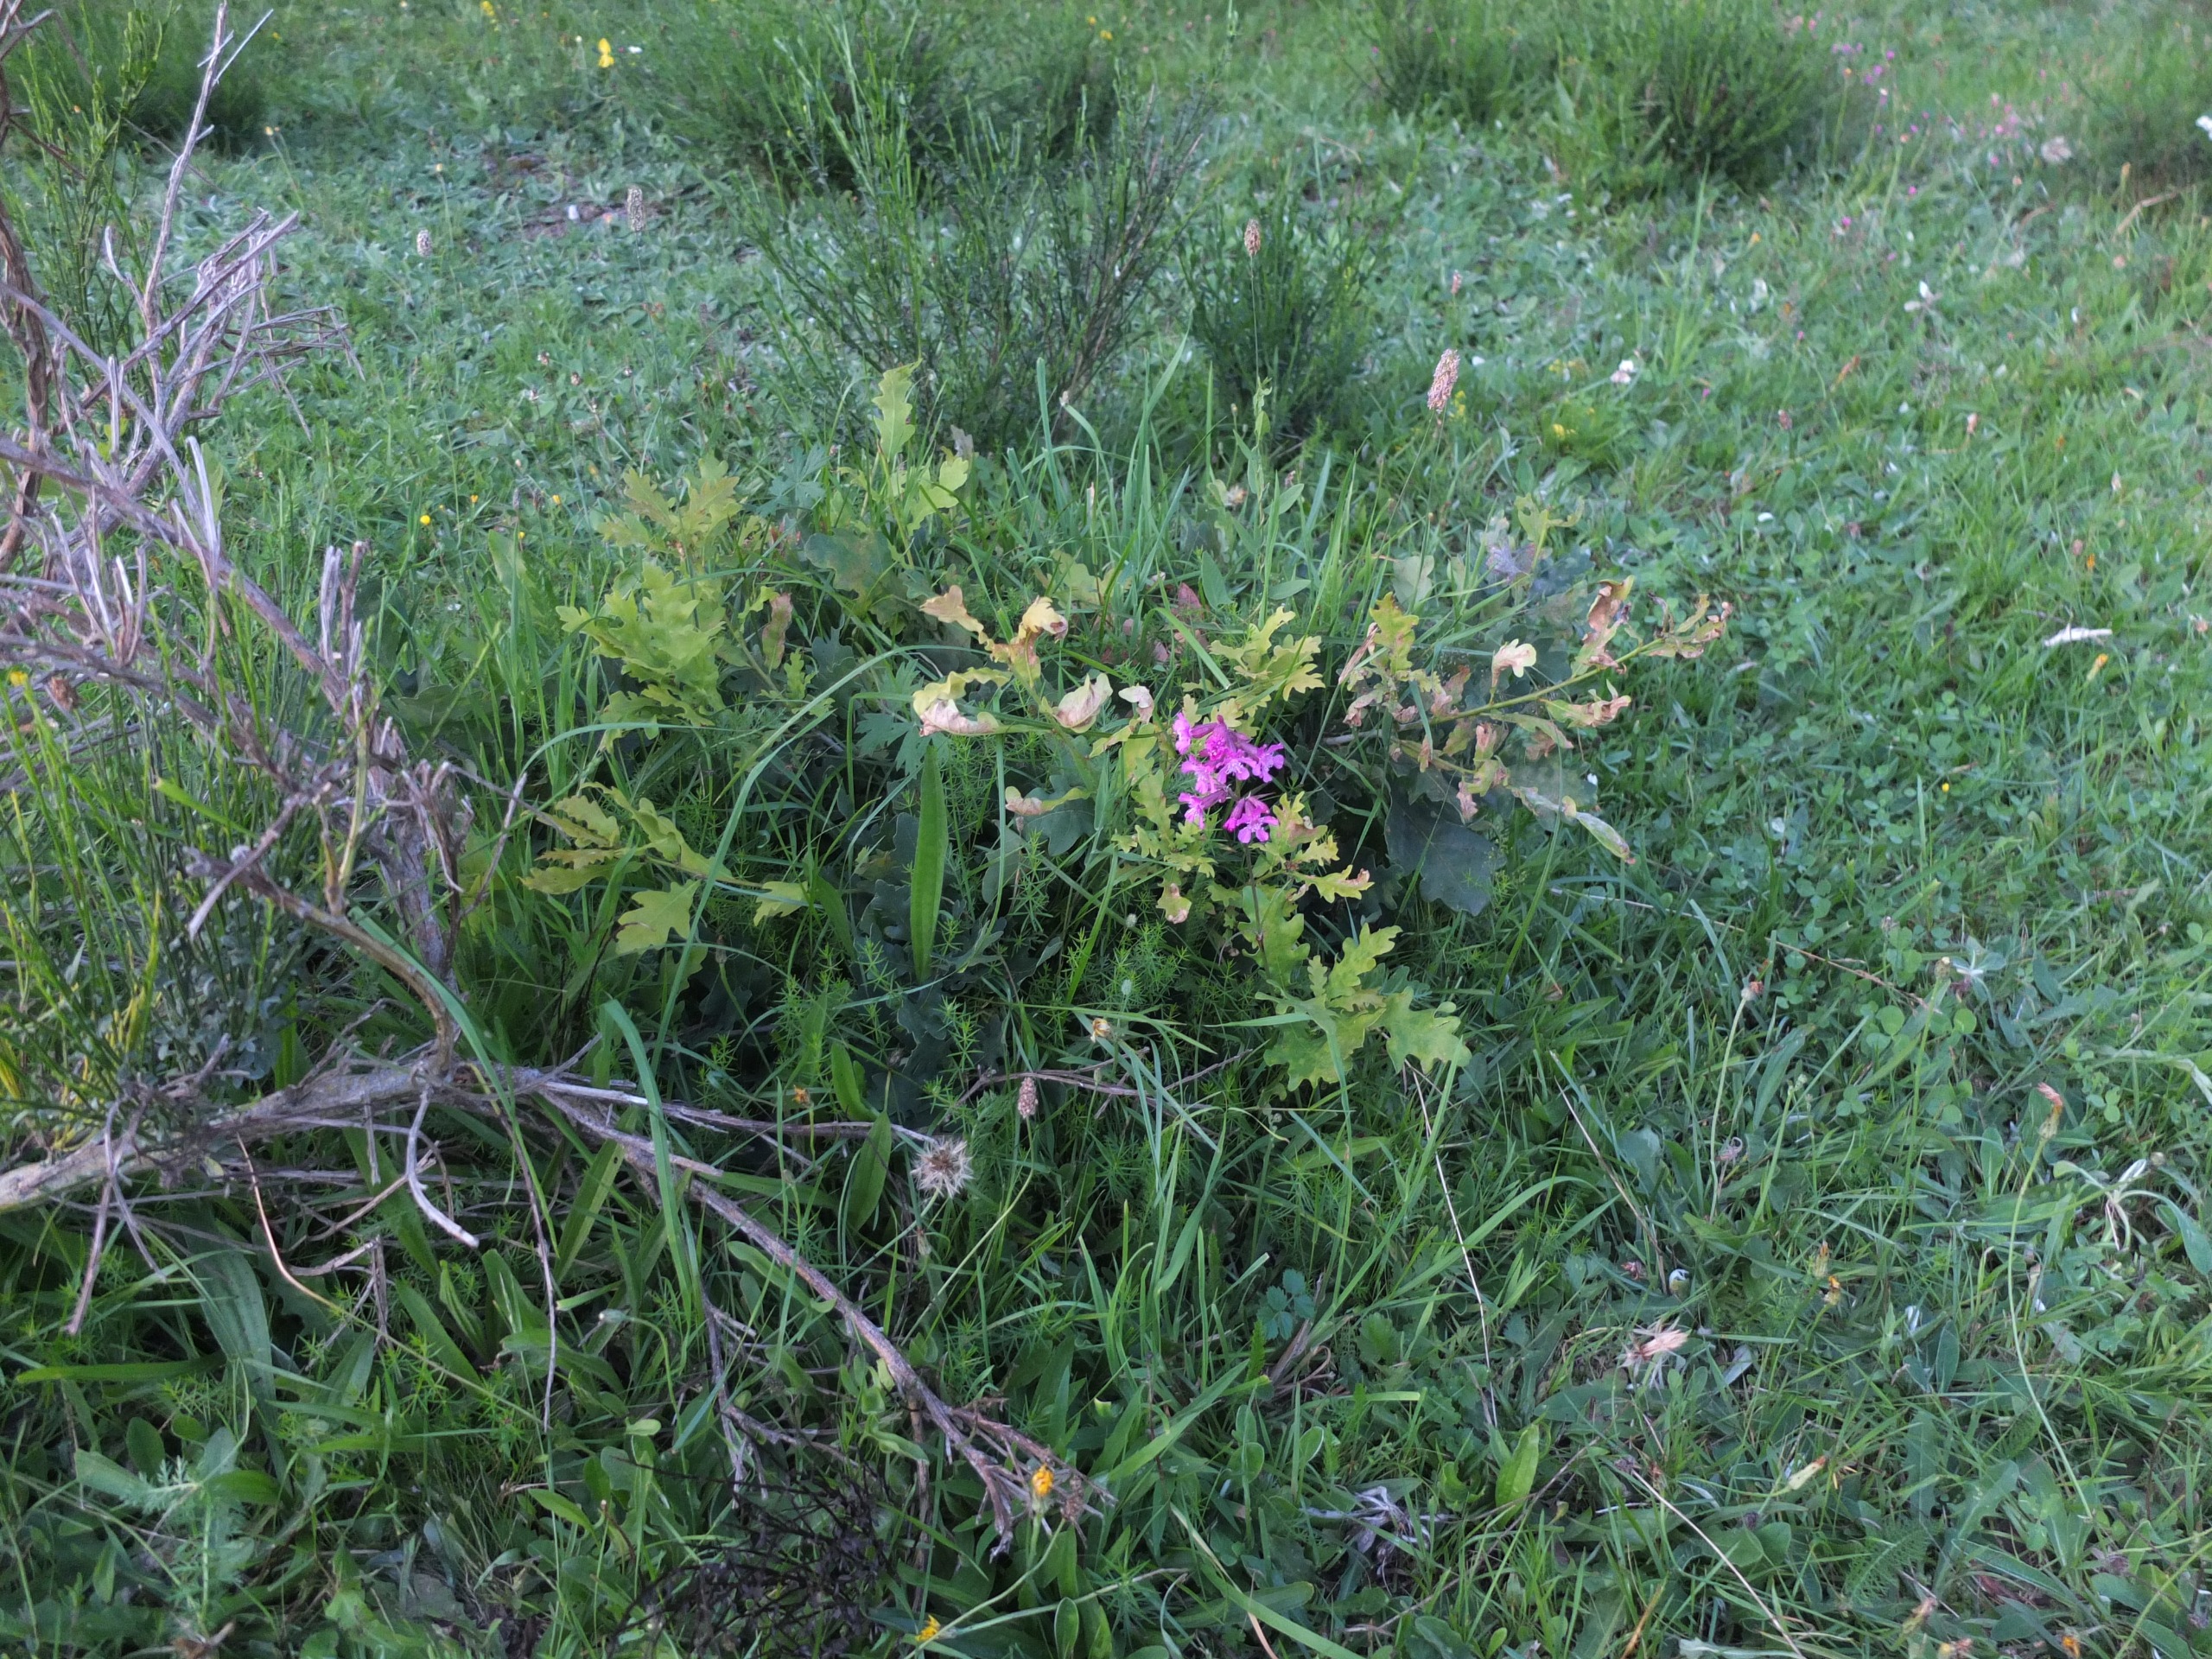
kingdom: Plantae
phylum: Tracheophyta
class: Magnoliopsida
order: Caryophyllales
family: Caryophyllaceae
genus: Viscaria
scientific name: Viscaria vulgaris
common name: Tjærenellike
